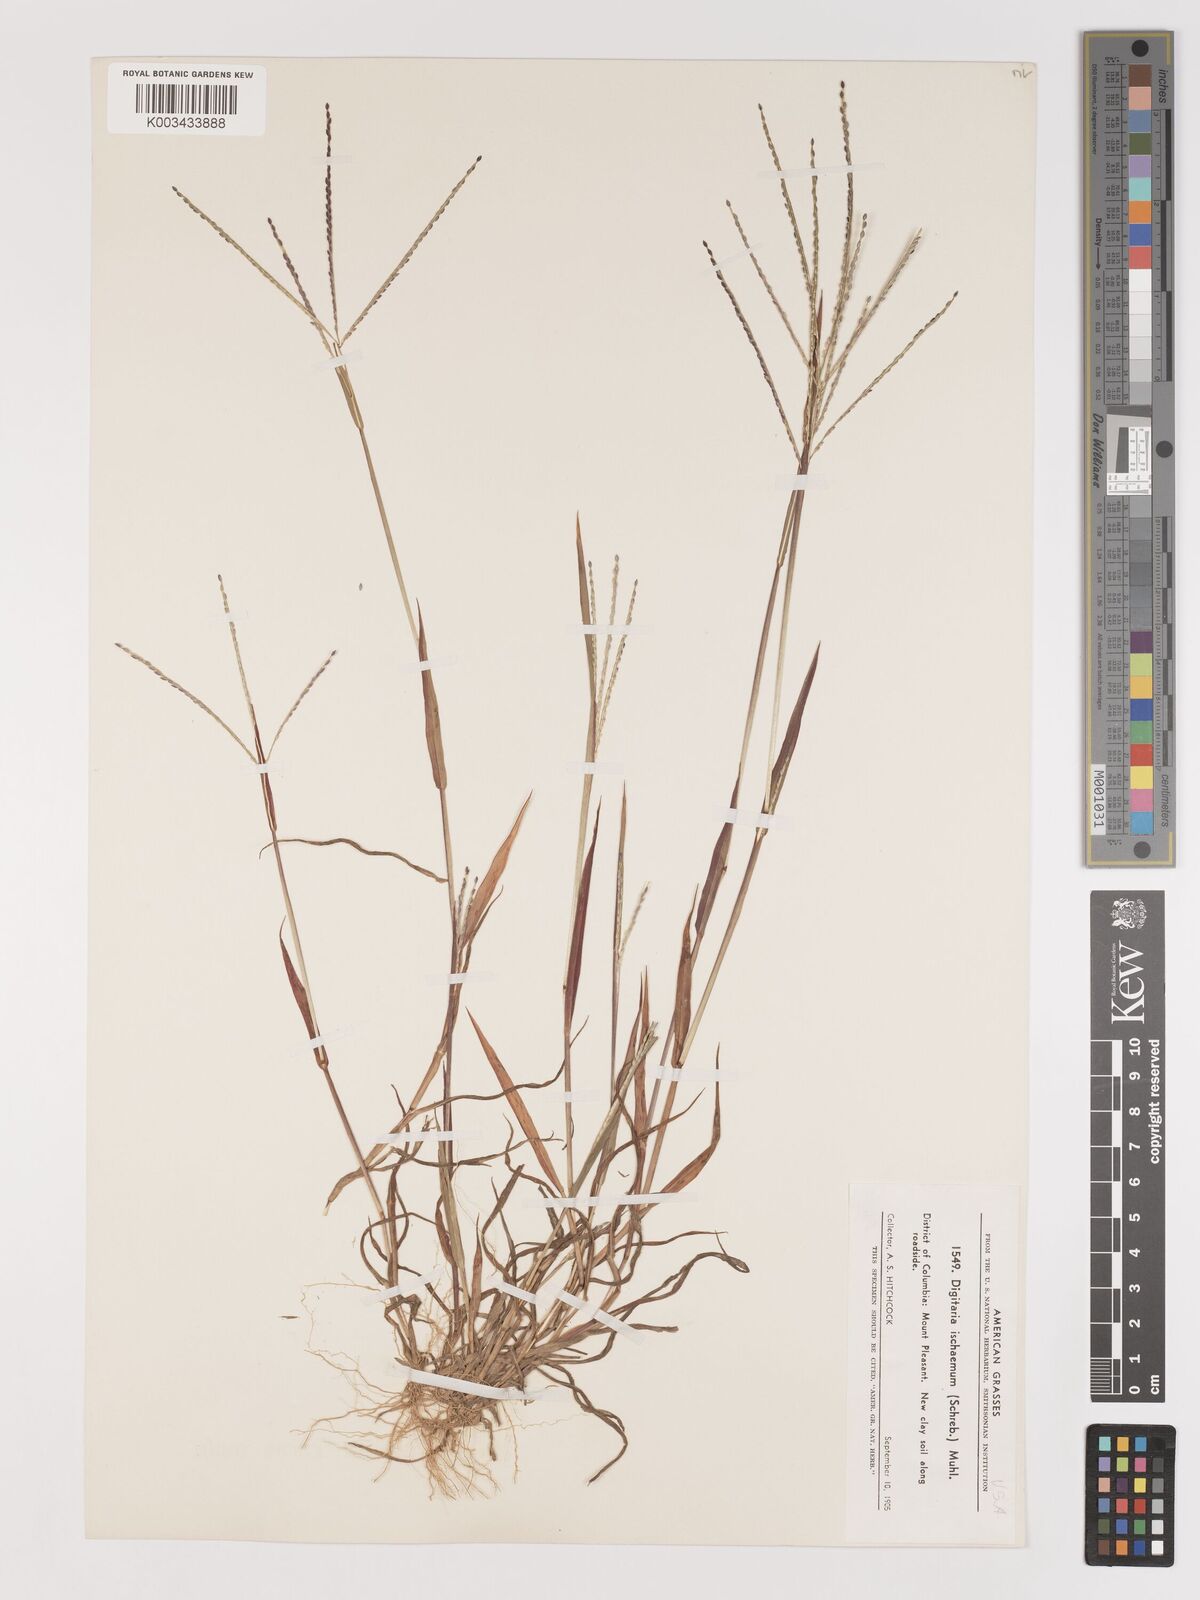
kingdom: Plantae
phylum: Tracheophyta
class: Liliopsida
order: Poales
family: Poaceae
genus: Digitaria
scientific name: Digitaria ischaemum
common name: Smooth crabgrass
